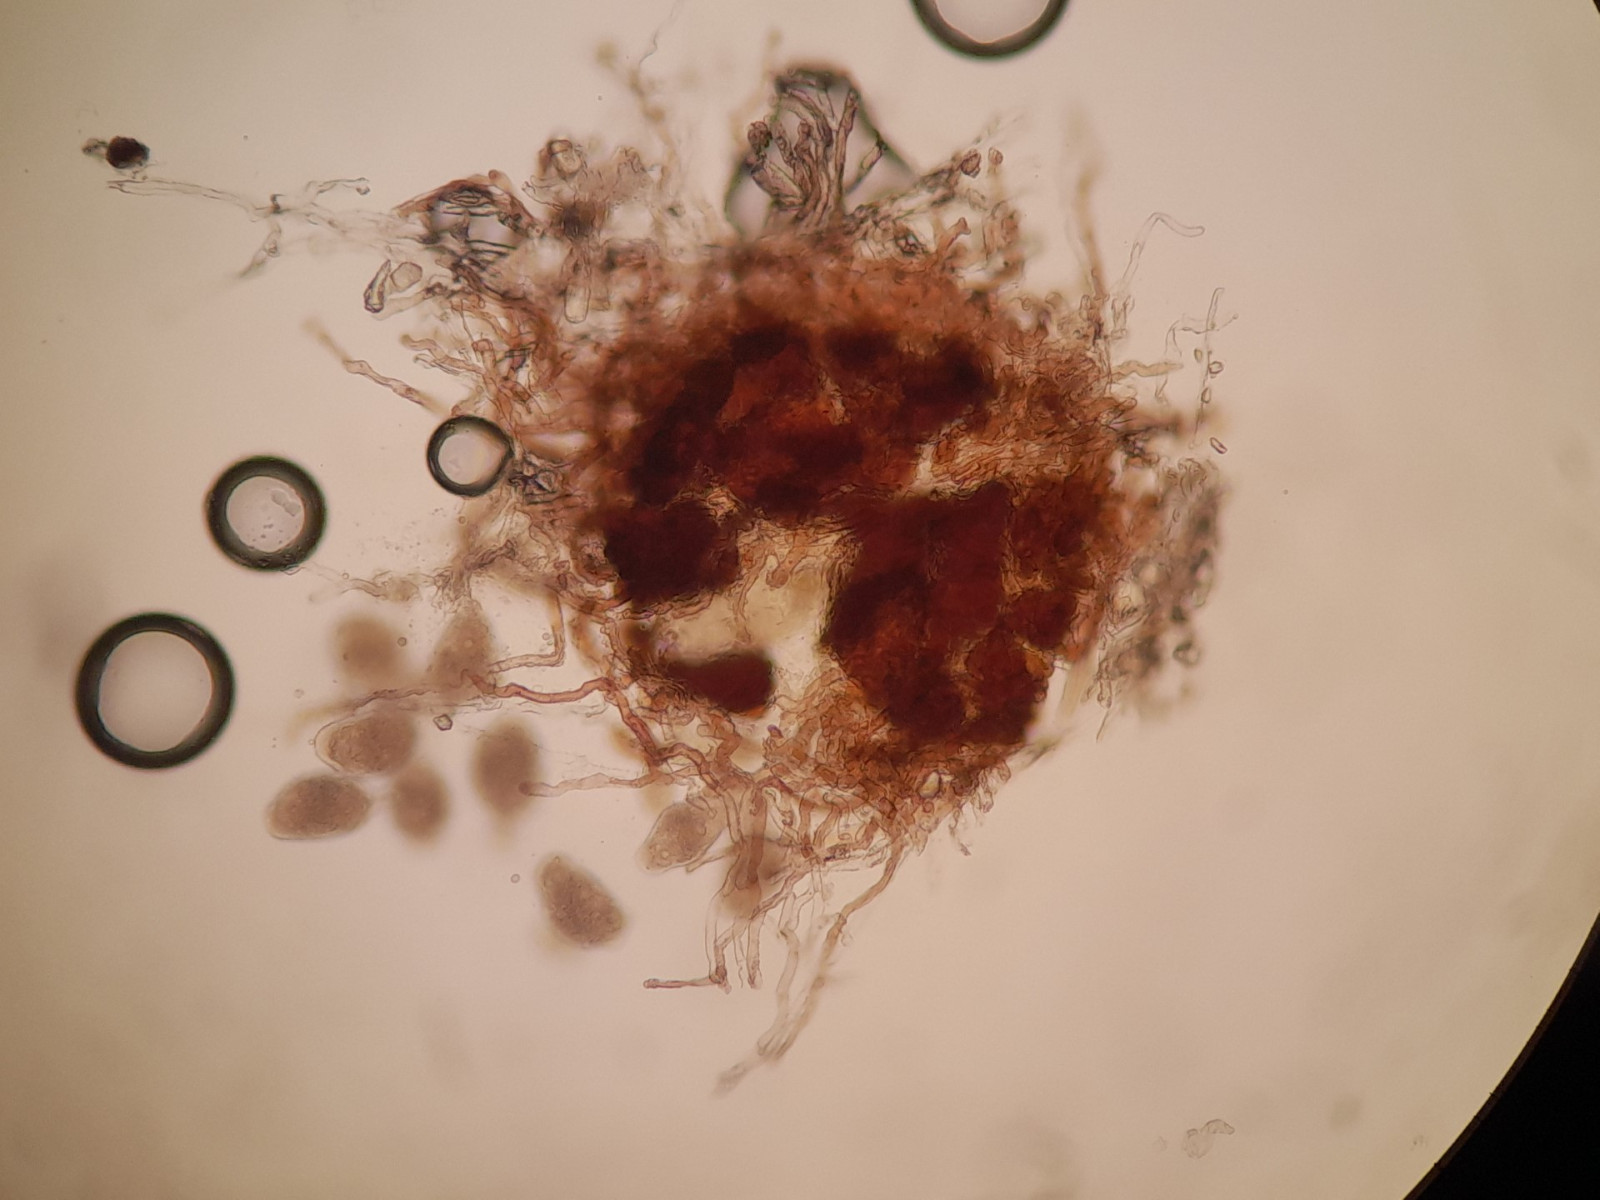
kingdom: Fungi
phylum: Ascomycota
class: Leotiomycetes
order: Helotiales
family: Erysiphaceae
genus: Golovinomyces
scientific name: Golovinomyces inulae
